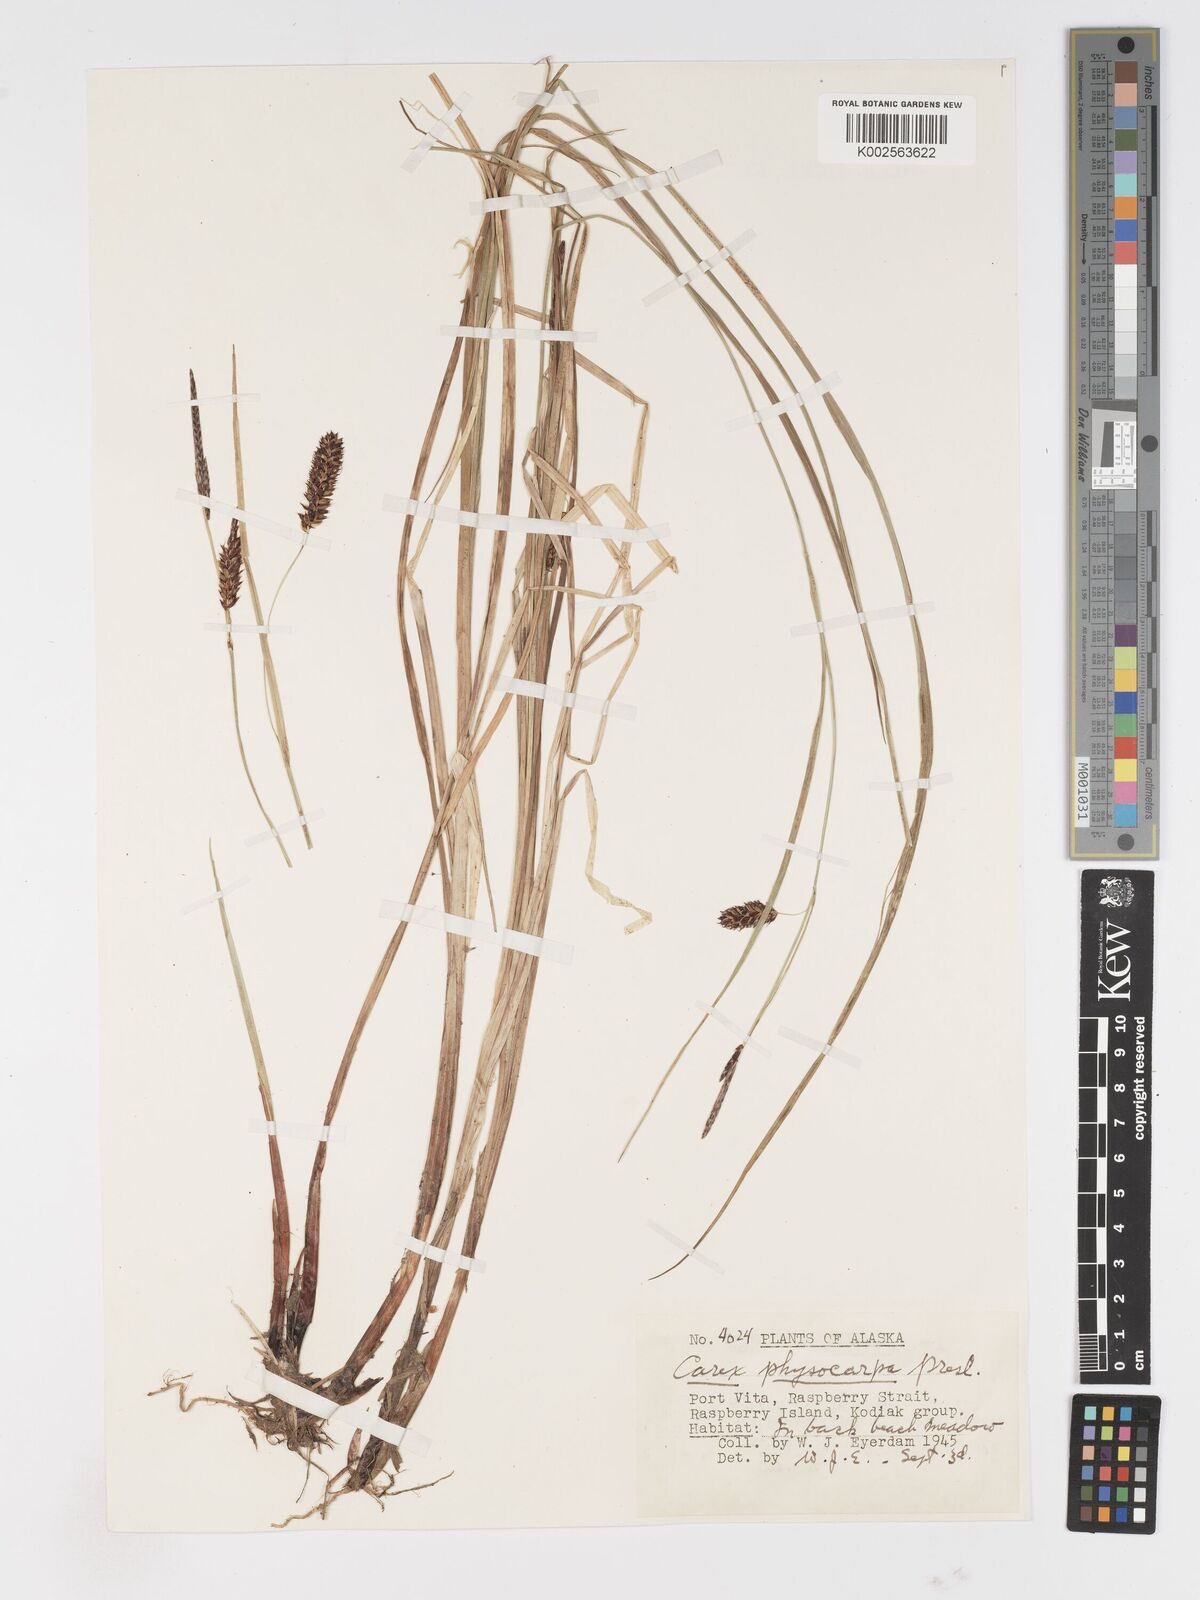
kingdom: Plantae
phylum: Tracheophyta
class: Liliopsida
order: Poales
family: Cyperaceae
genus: Carex
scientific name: Carex saxatilis
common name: Russet sedge
